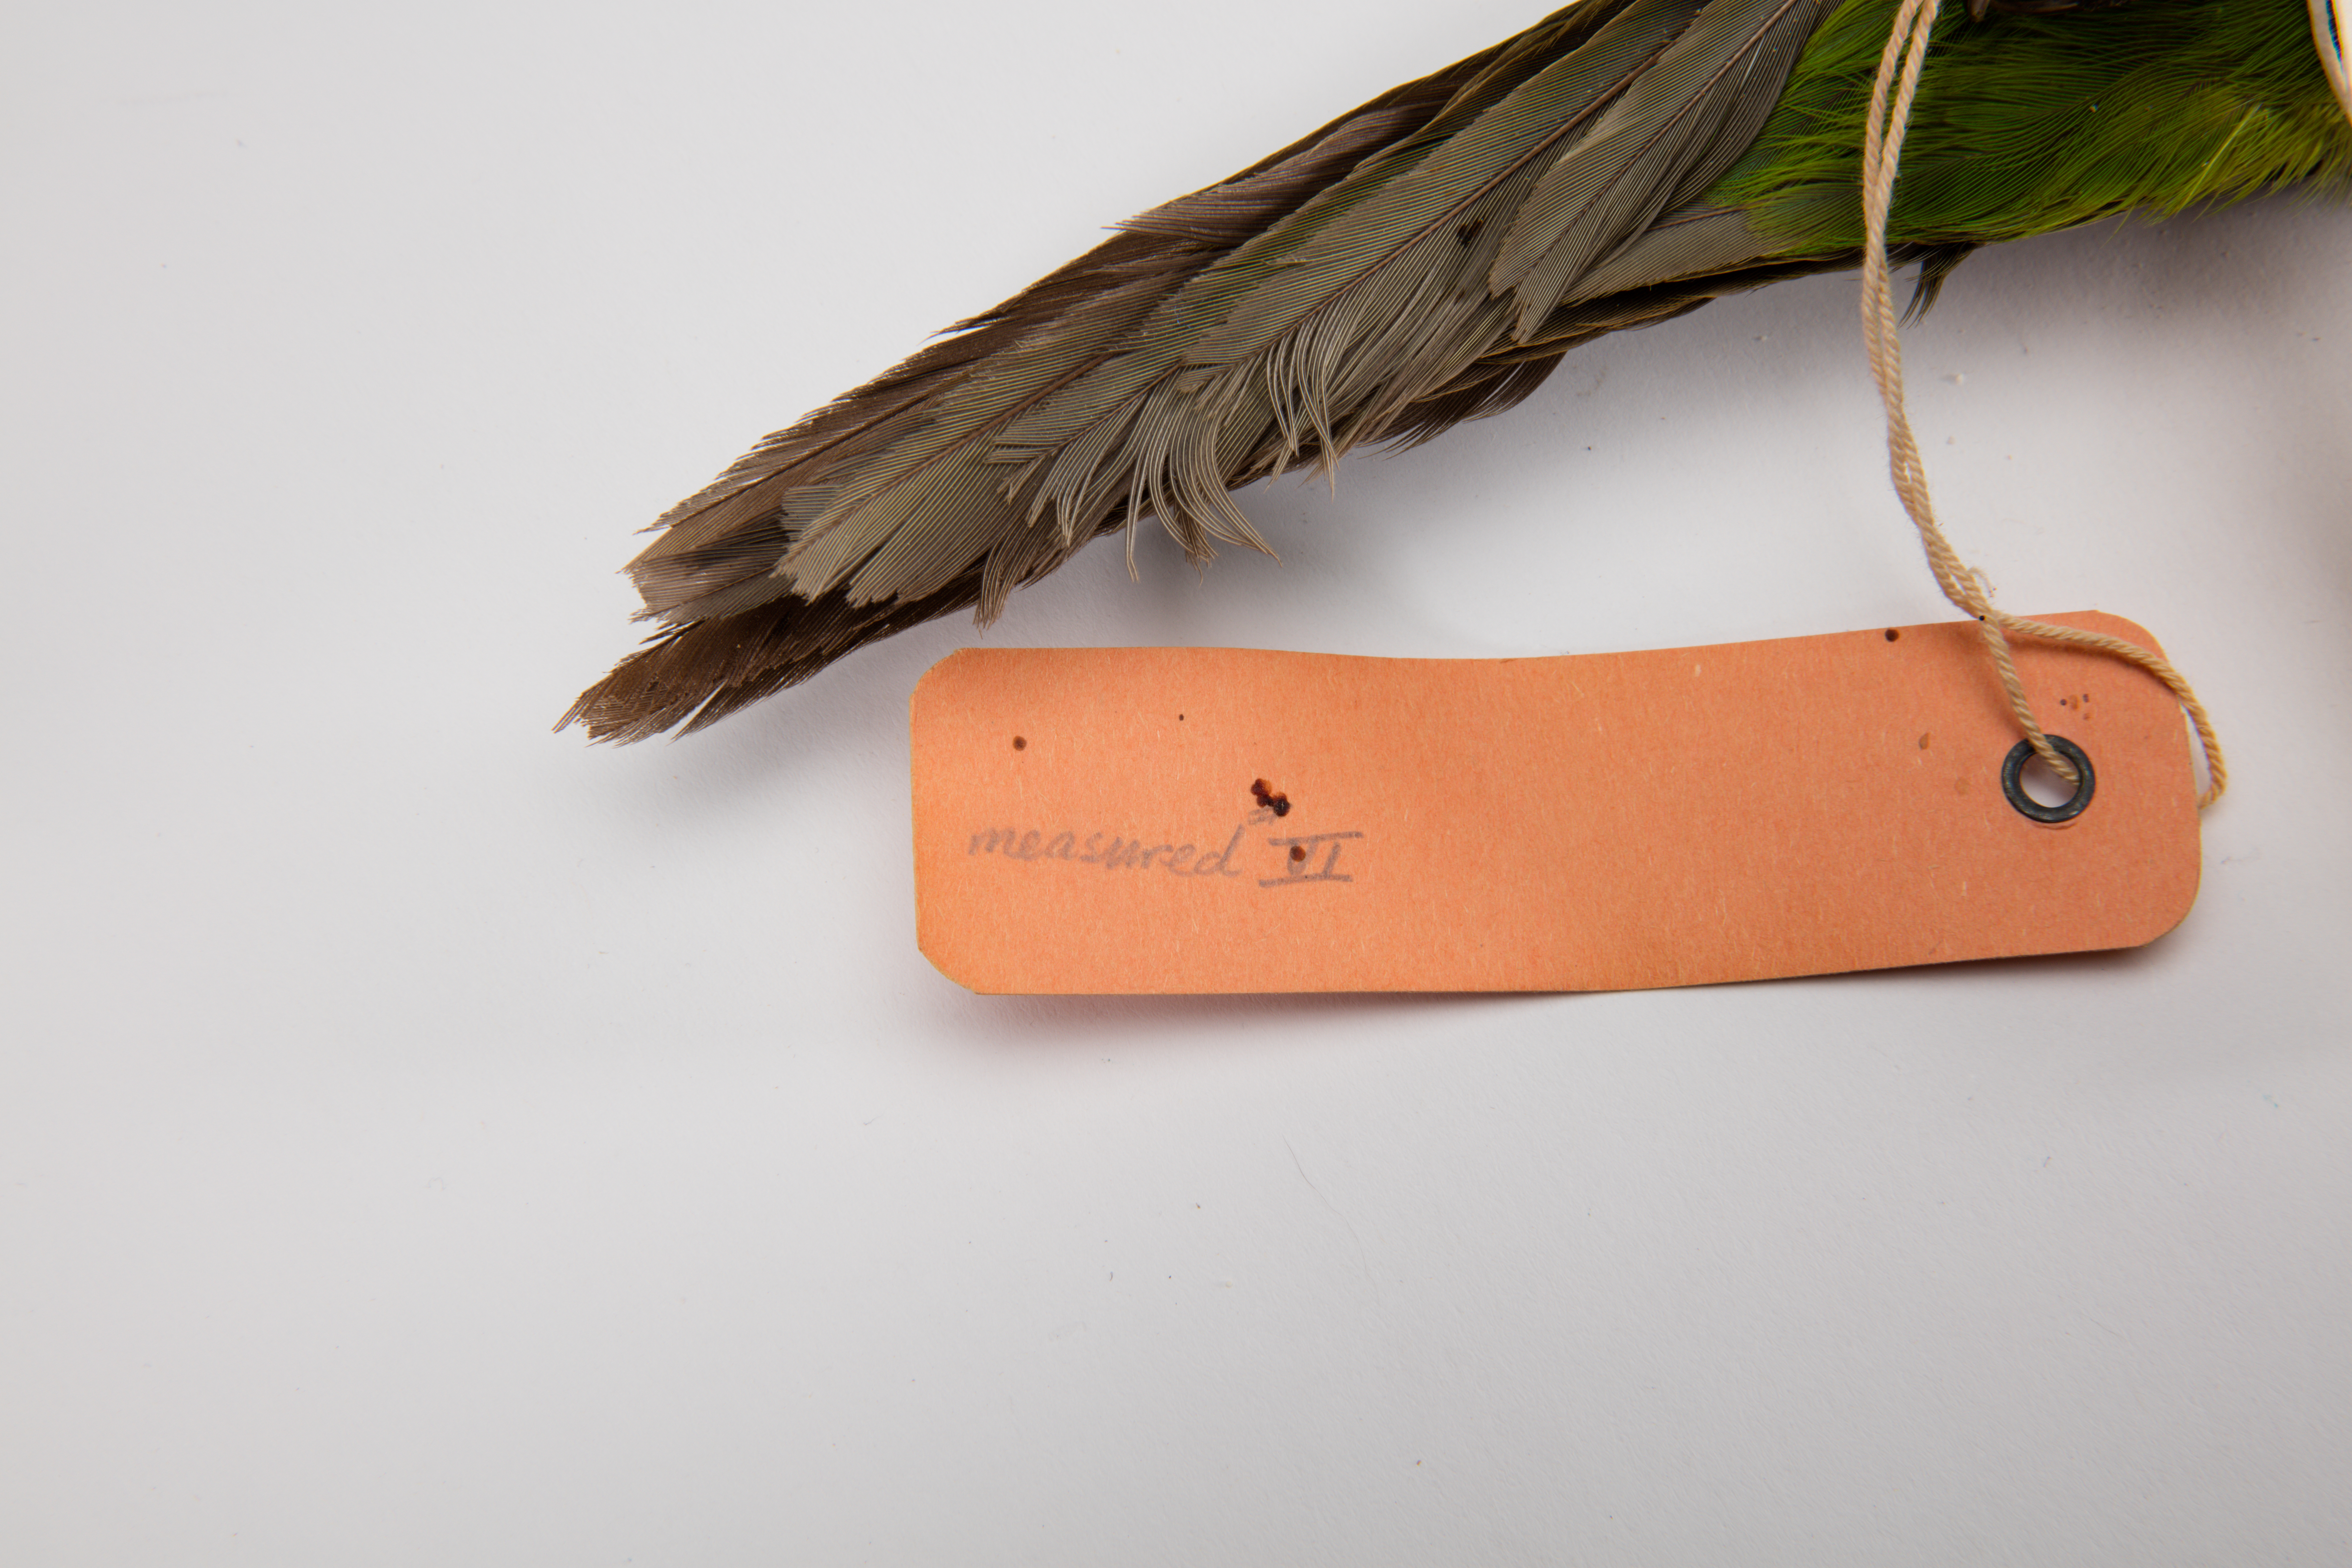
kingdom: Animalia
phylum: Chordata
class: Aves
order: Psittaciformes
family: Psittacidae
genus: Cyanoramphus
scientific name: Cyanoramphus novaezelandiae
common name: Red-fronted parakeet
